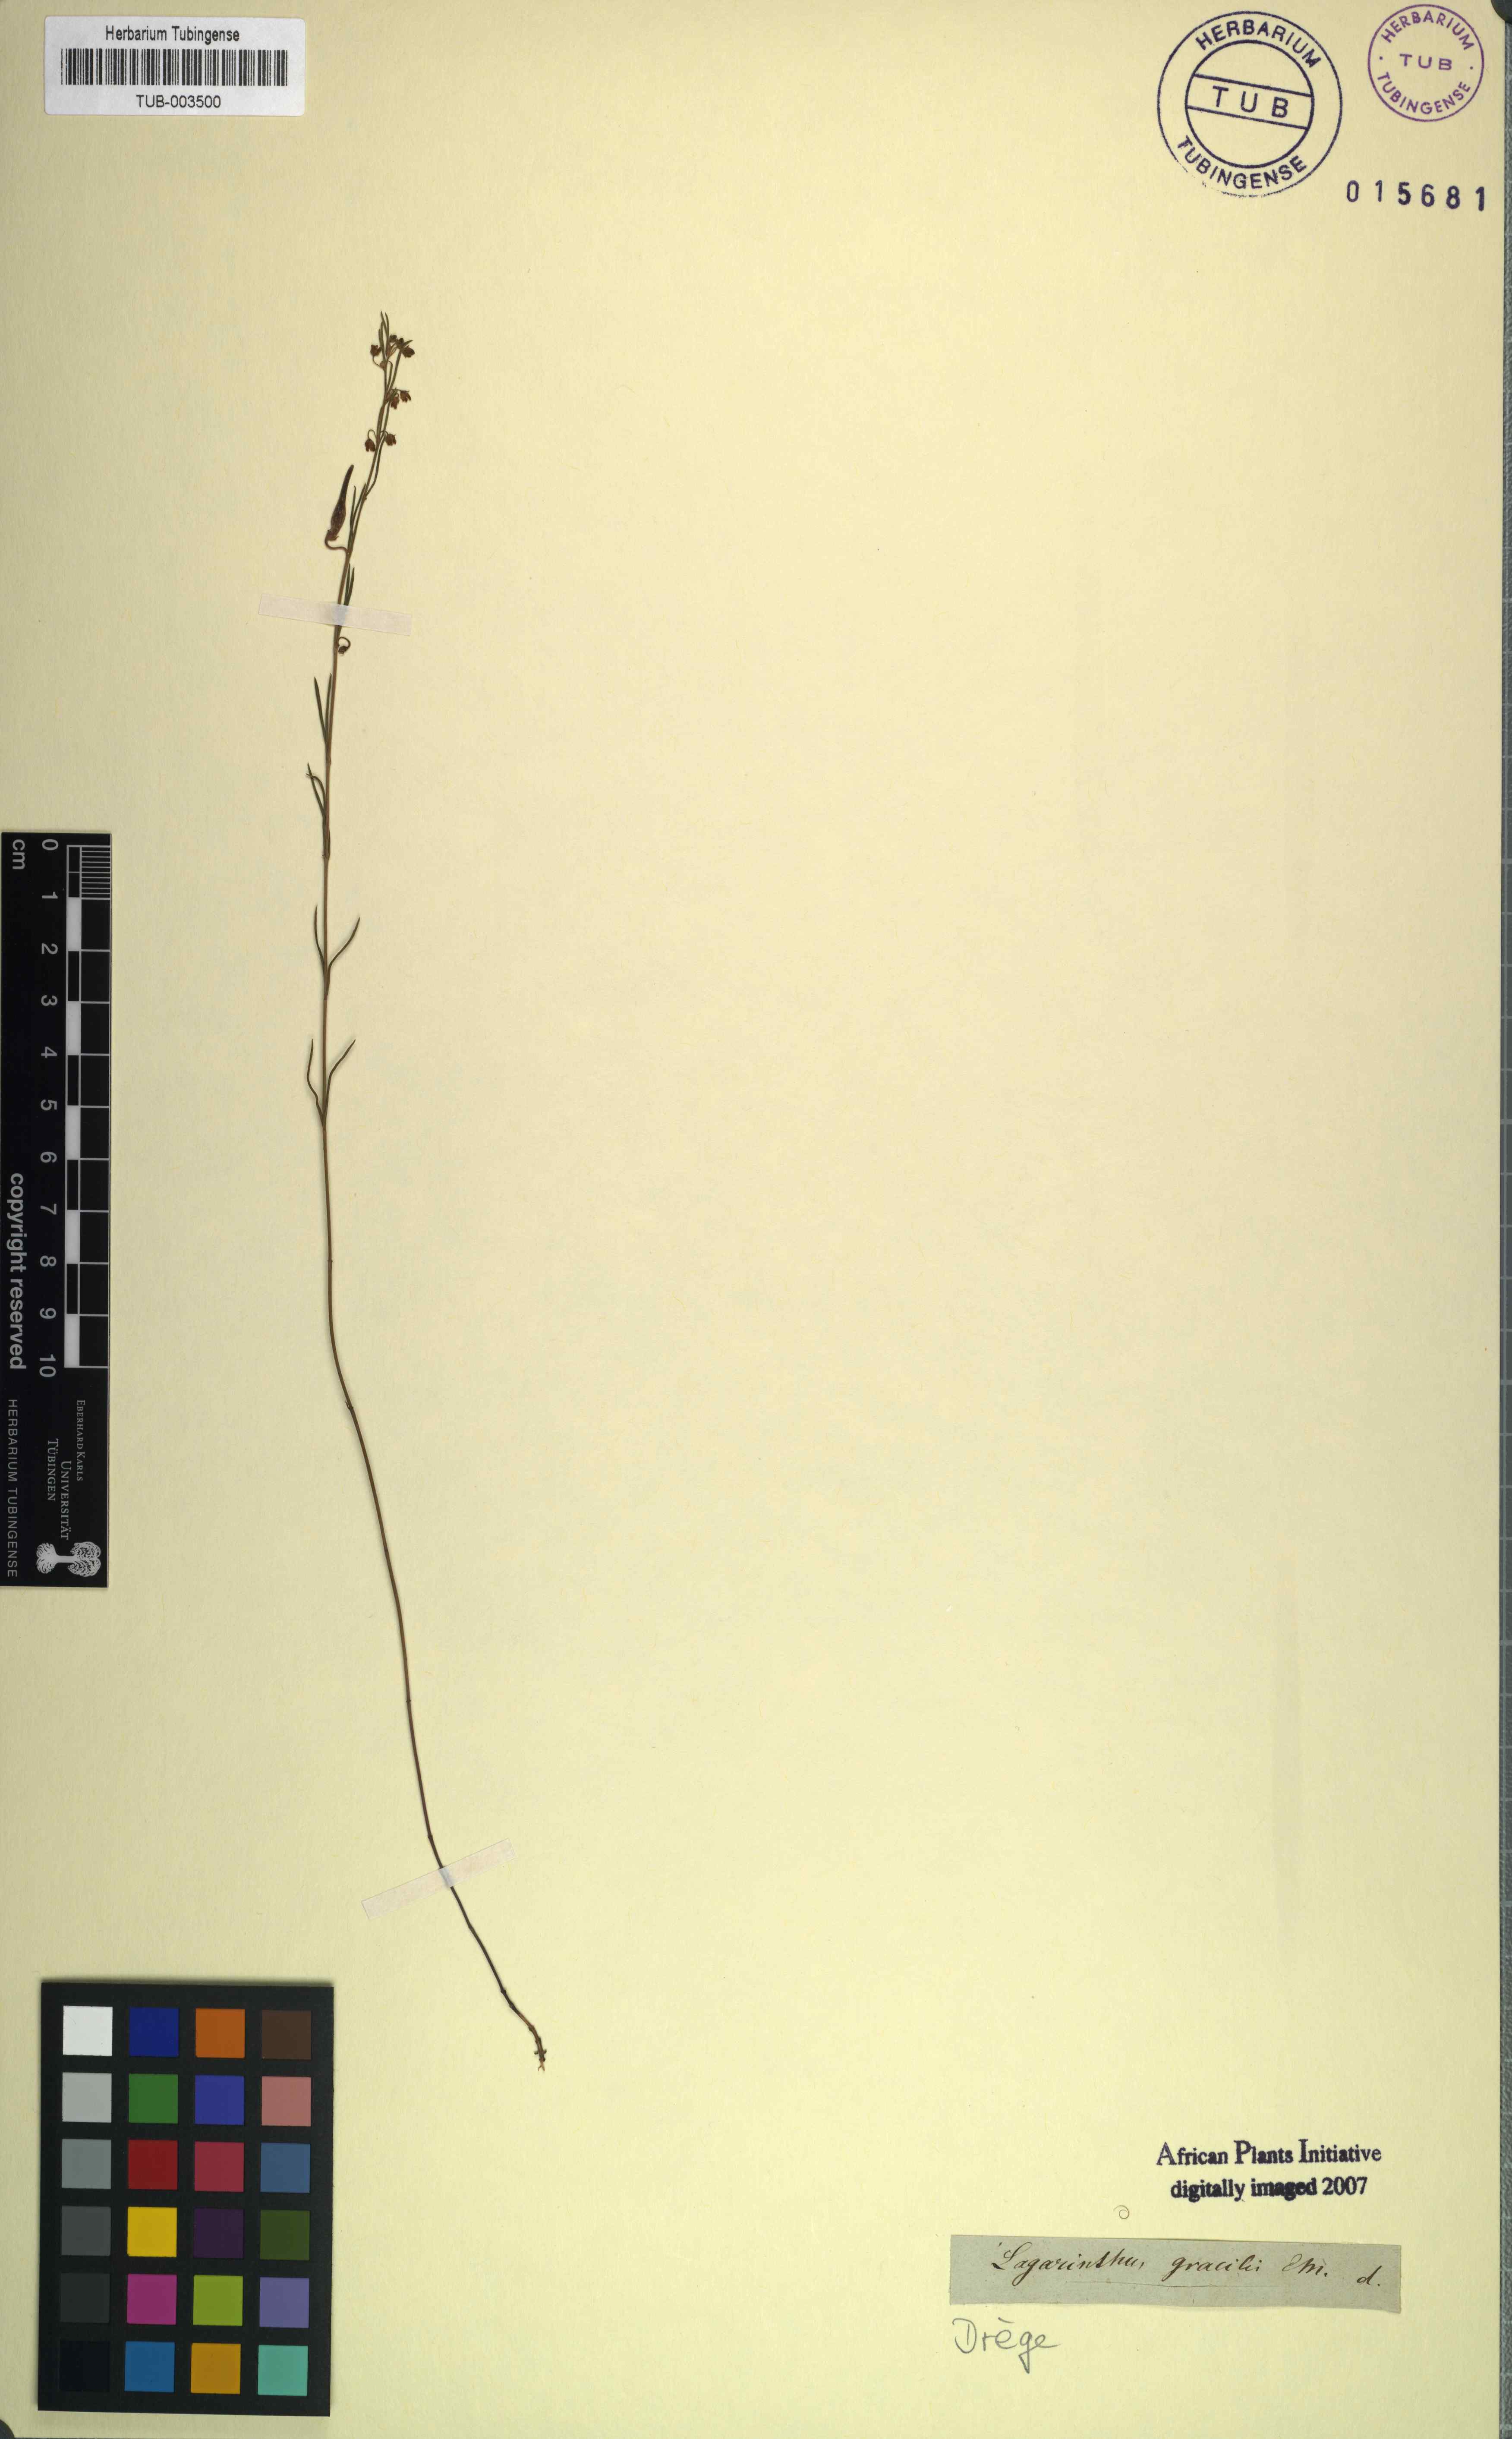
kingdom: Plantae
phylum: Tracheophyta
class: Magnoliopsida
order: Gentianales
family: Apocynaceae
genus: Aspidoglossum
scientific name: Aspidoglossum gracile
